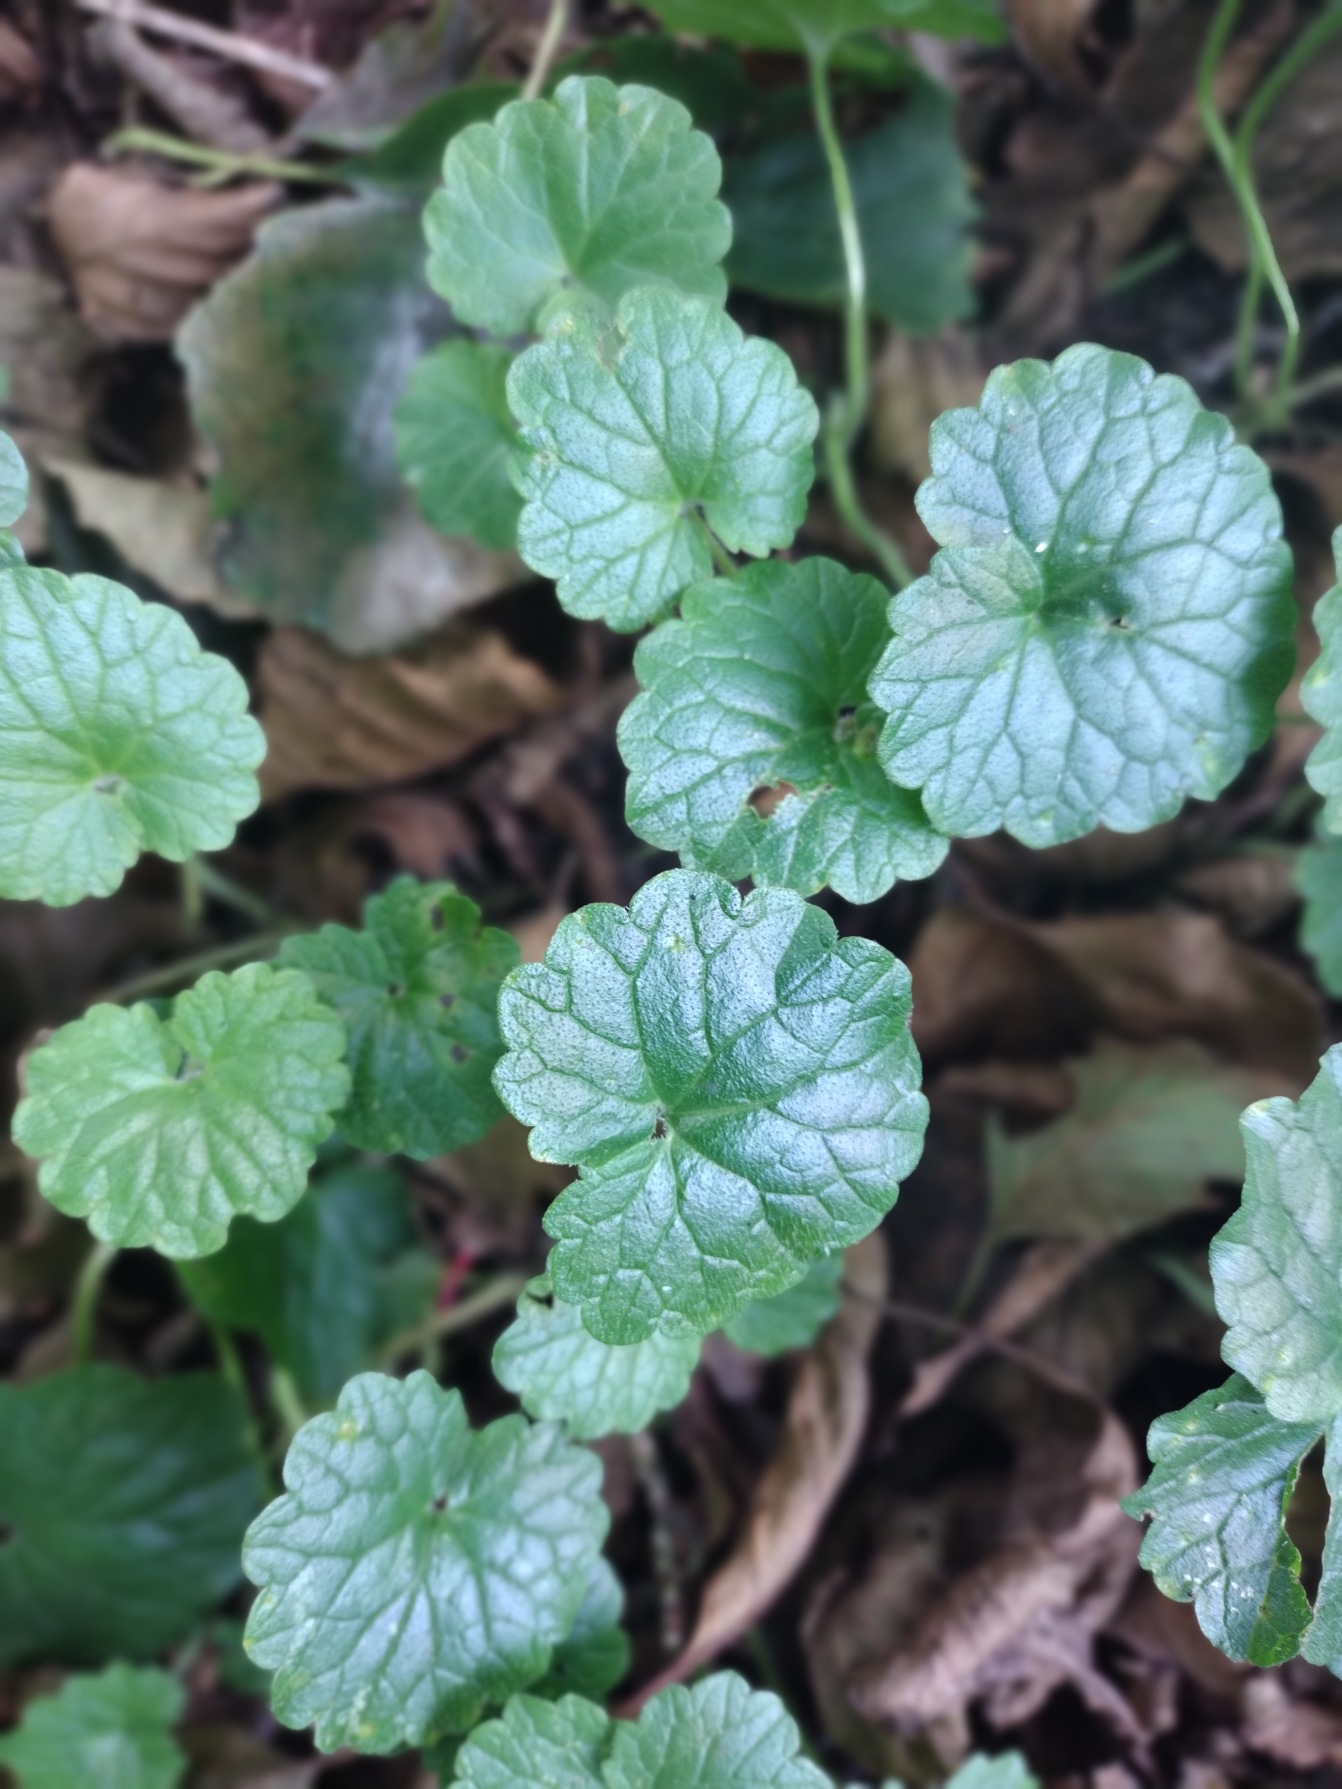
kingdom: Plantae
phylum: Tracheophyta
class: Magnoliopsida
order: Lamiales
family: Lamiaceae
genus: Glechoma
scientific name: Glechoma hederacea
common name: Korsknap
